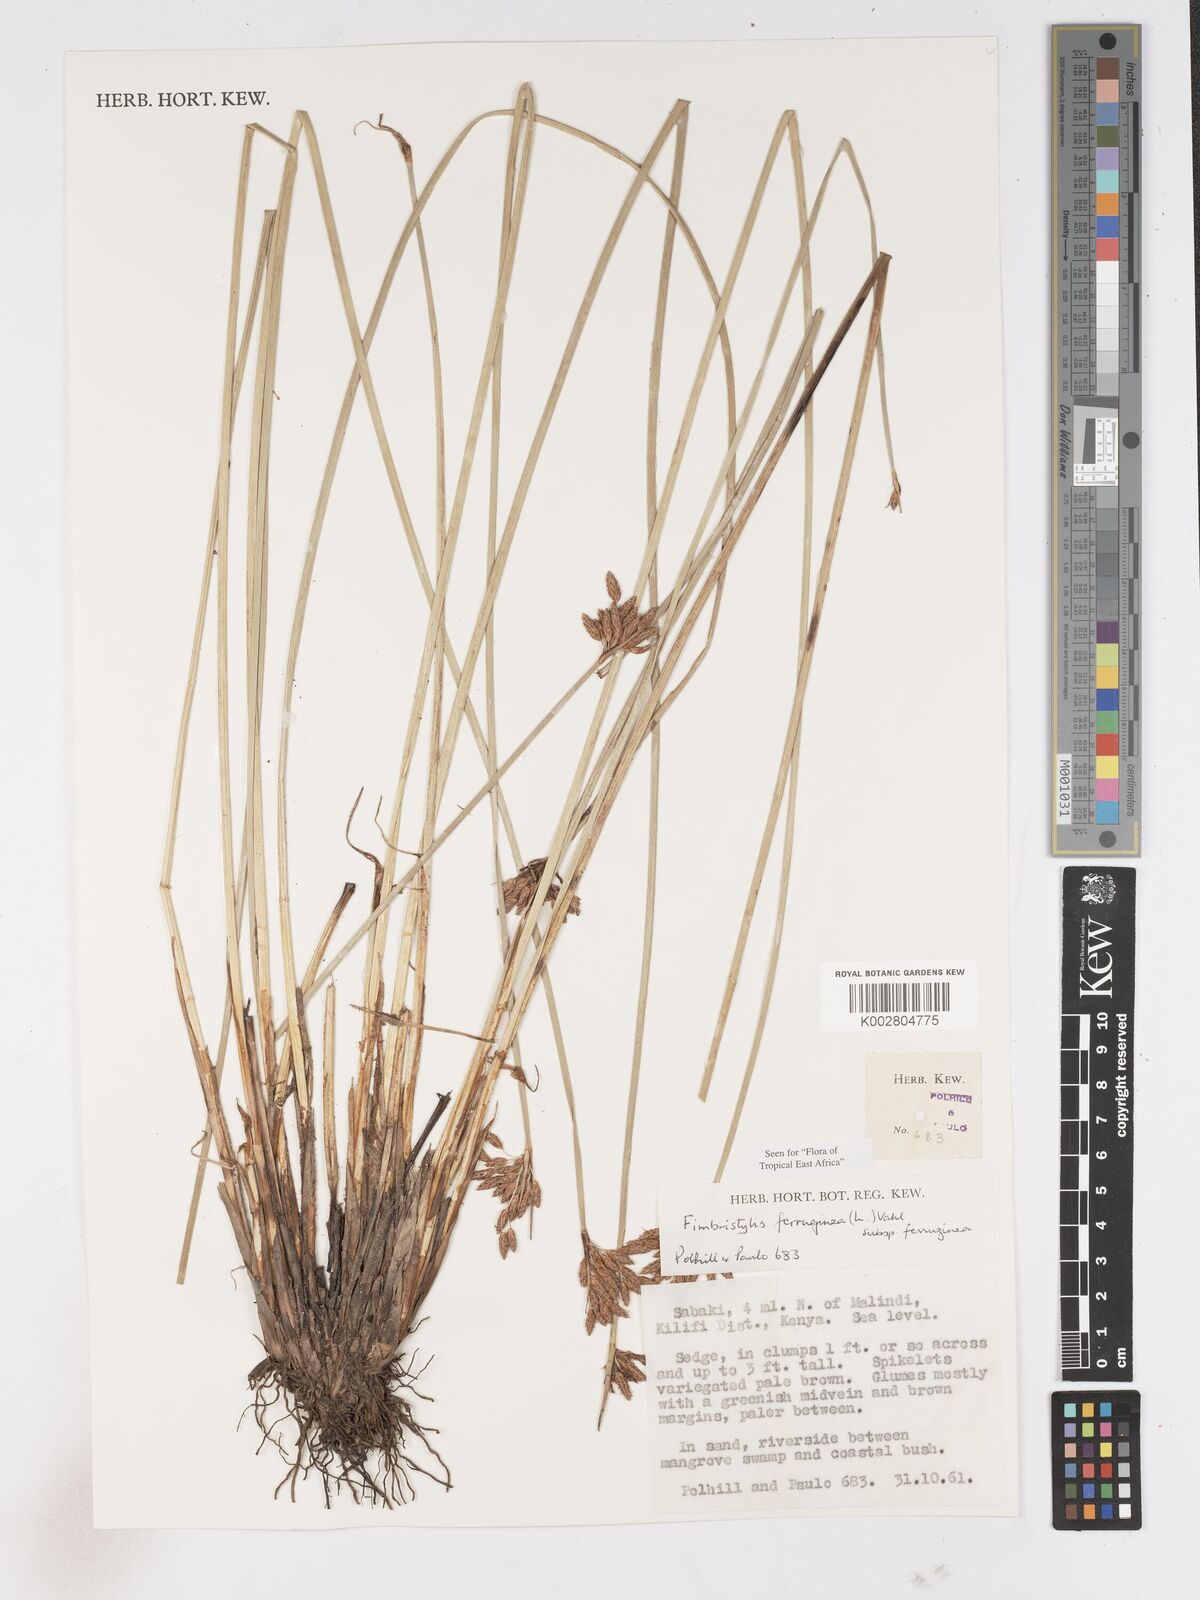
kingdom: Plantae
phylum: Tracheophyta
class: Liliopsida
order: Poales
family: Cyperaceae
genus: Fimbristylis
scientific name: Fimbristylis ferruginea
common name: West indian fimbry
